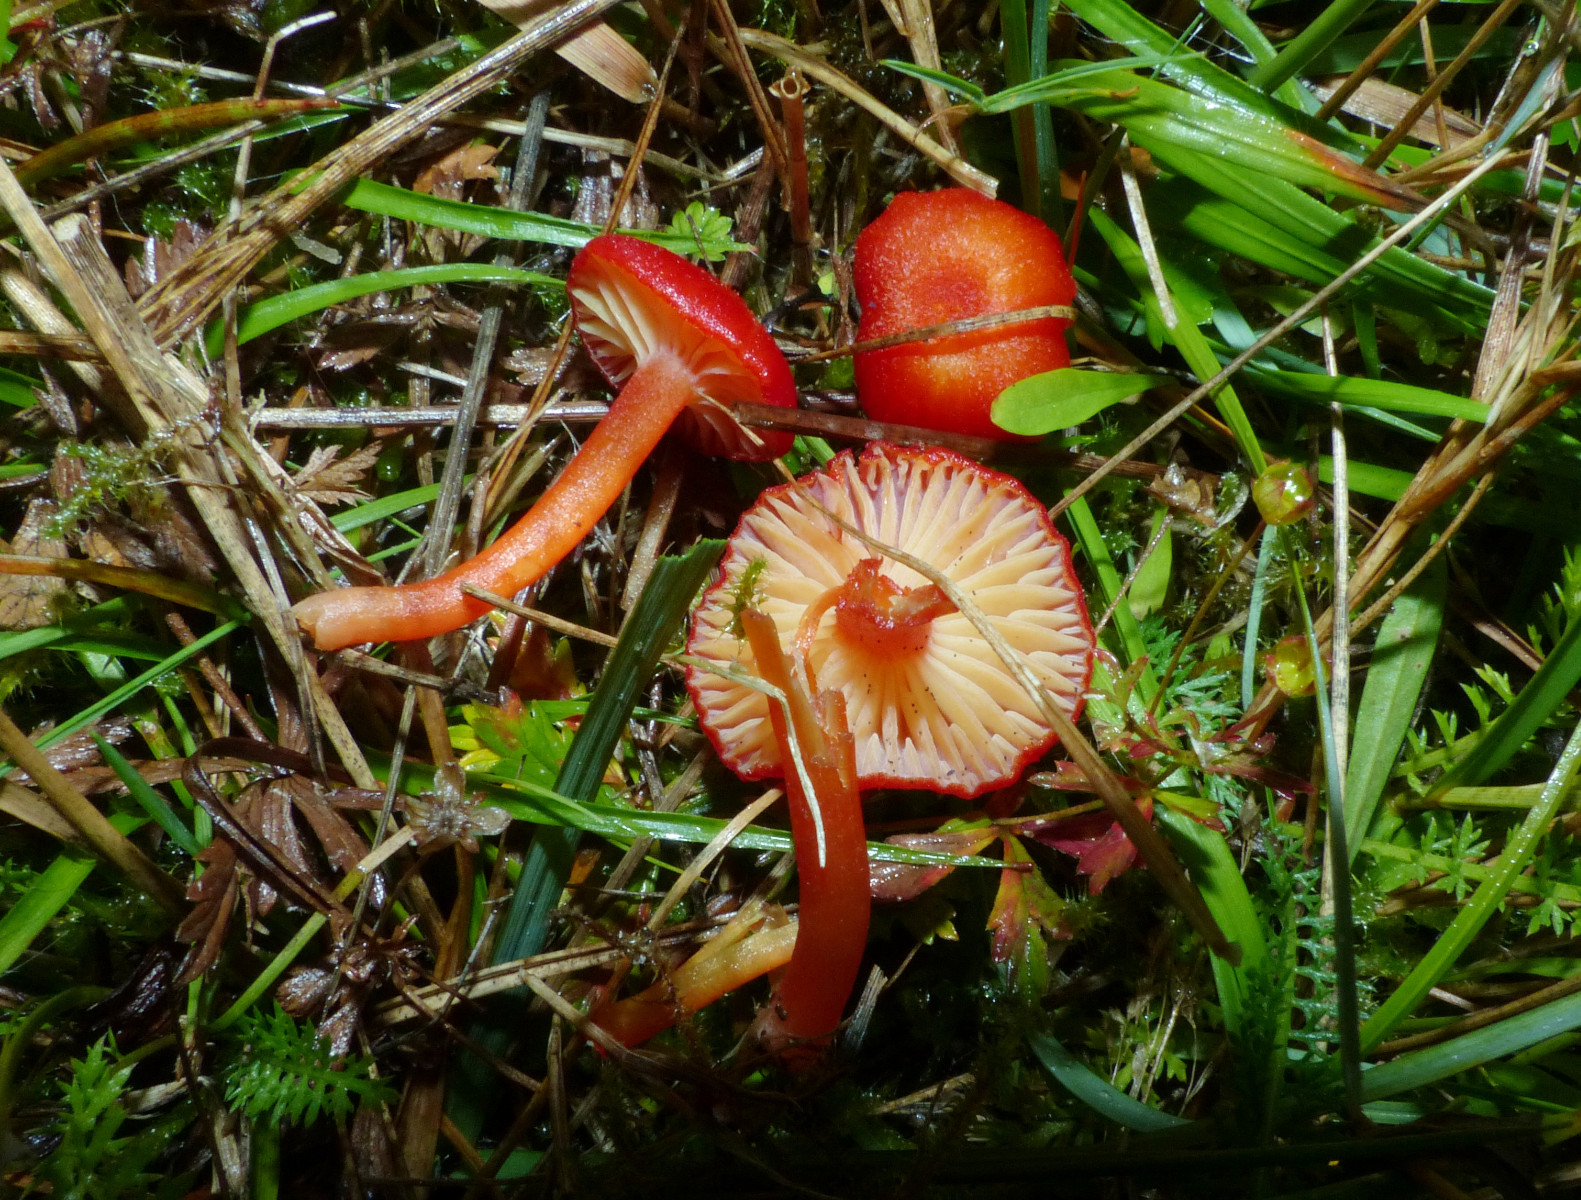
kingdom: Fungi
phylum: Basidiomycota
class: Agaricomycetes
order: Agaricales
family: Hygrophoraceae
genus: Hygrocybe
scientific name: Hygrocybe miniata
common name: mønje-vokshat
